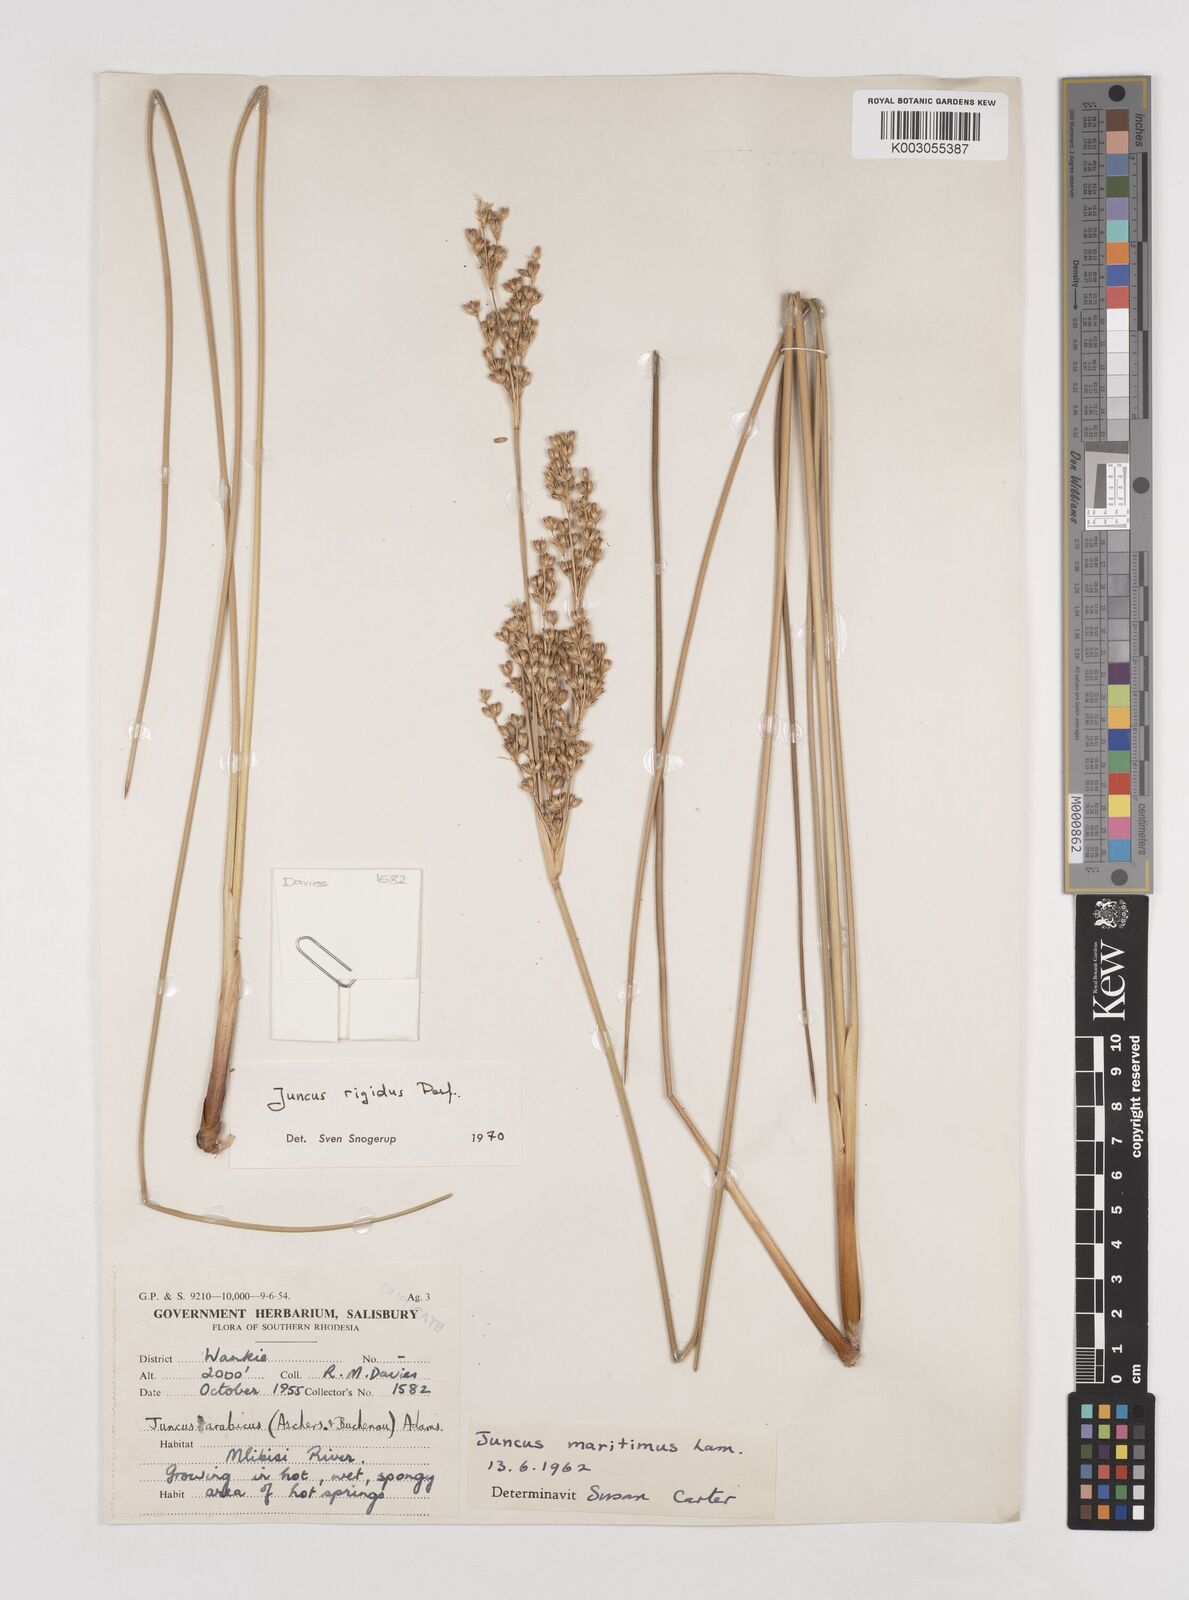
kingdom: Plantae
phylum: Tracheophyta
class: Liliopsida
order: Poales
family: Juncaceae
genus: Juncus
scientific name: Juncus rigidus
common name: Hard sea rush
